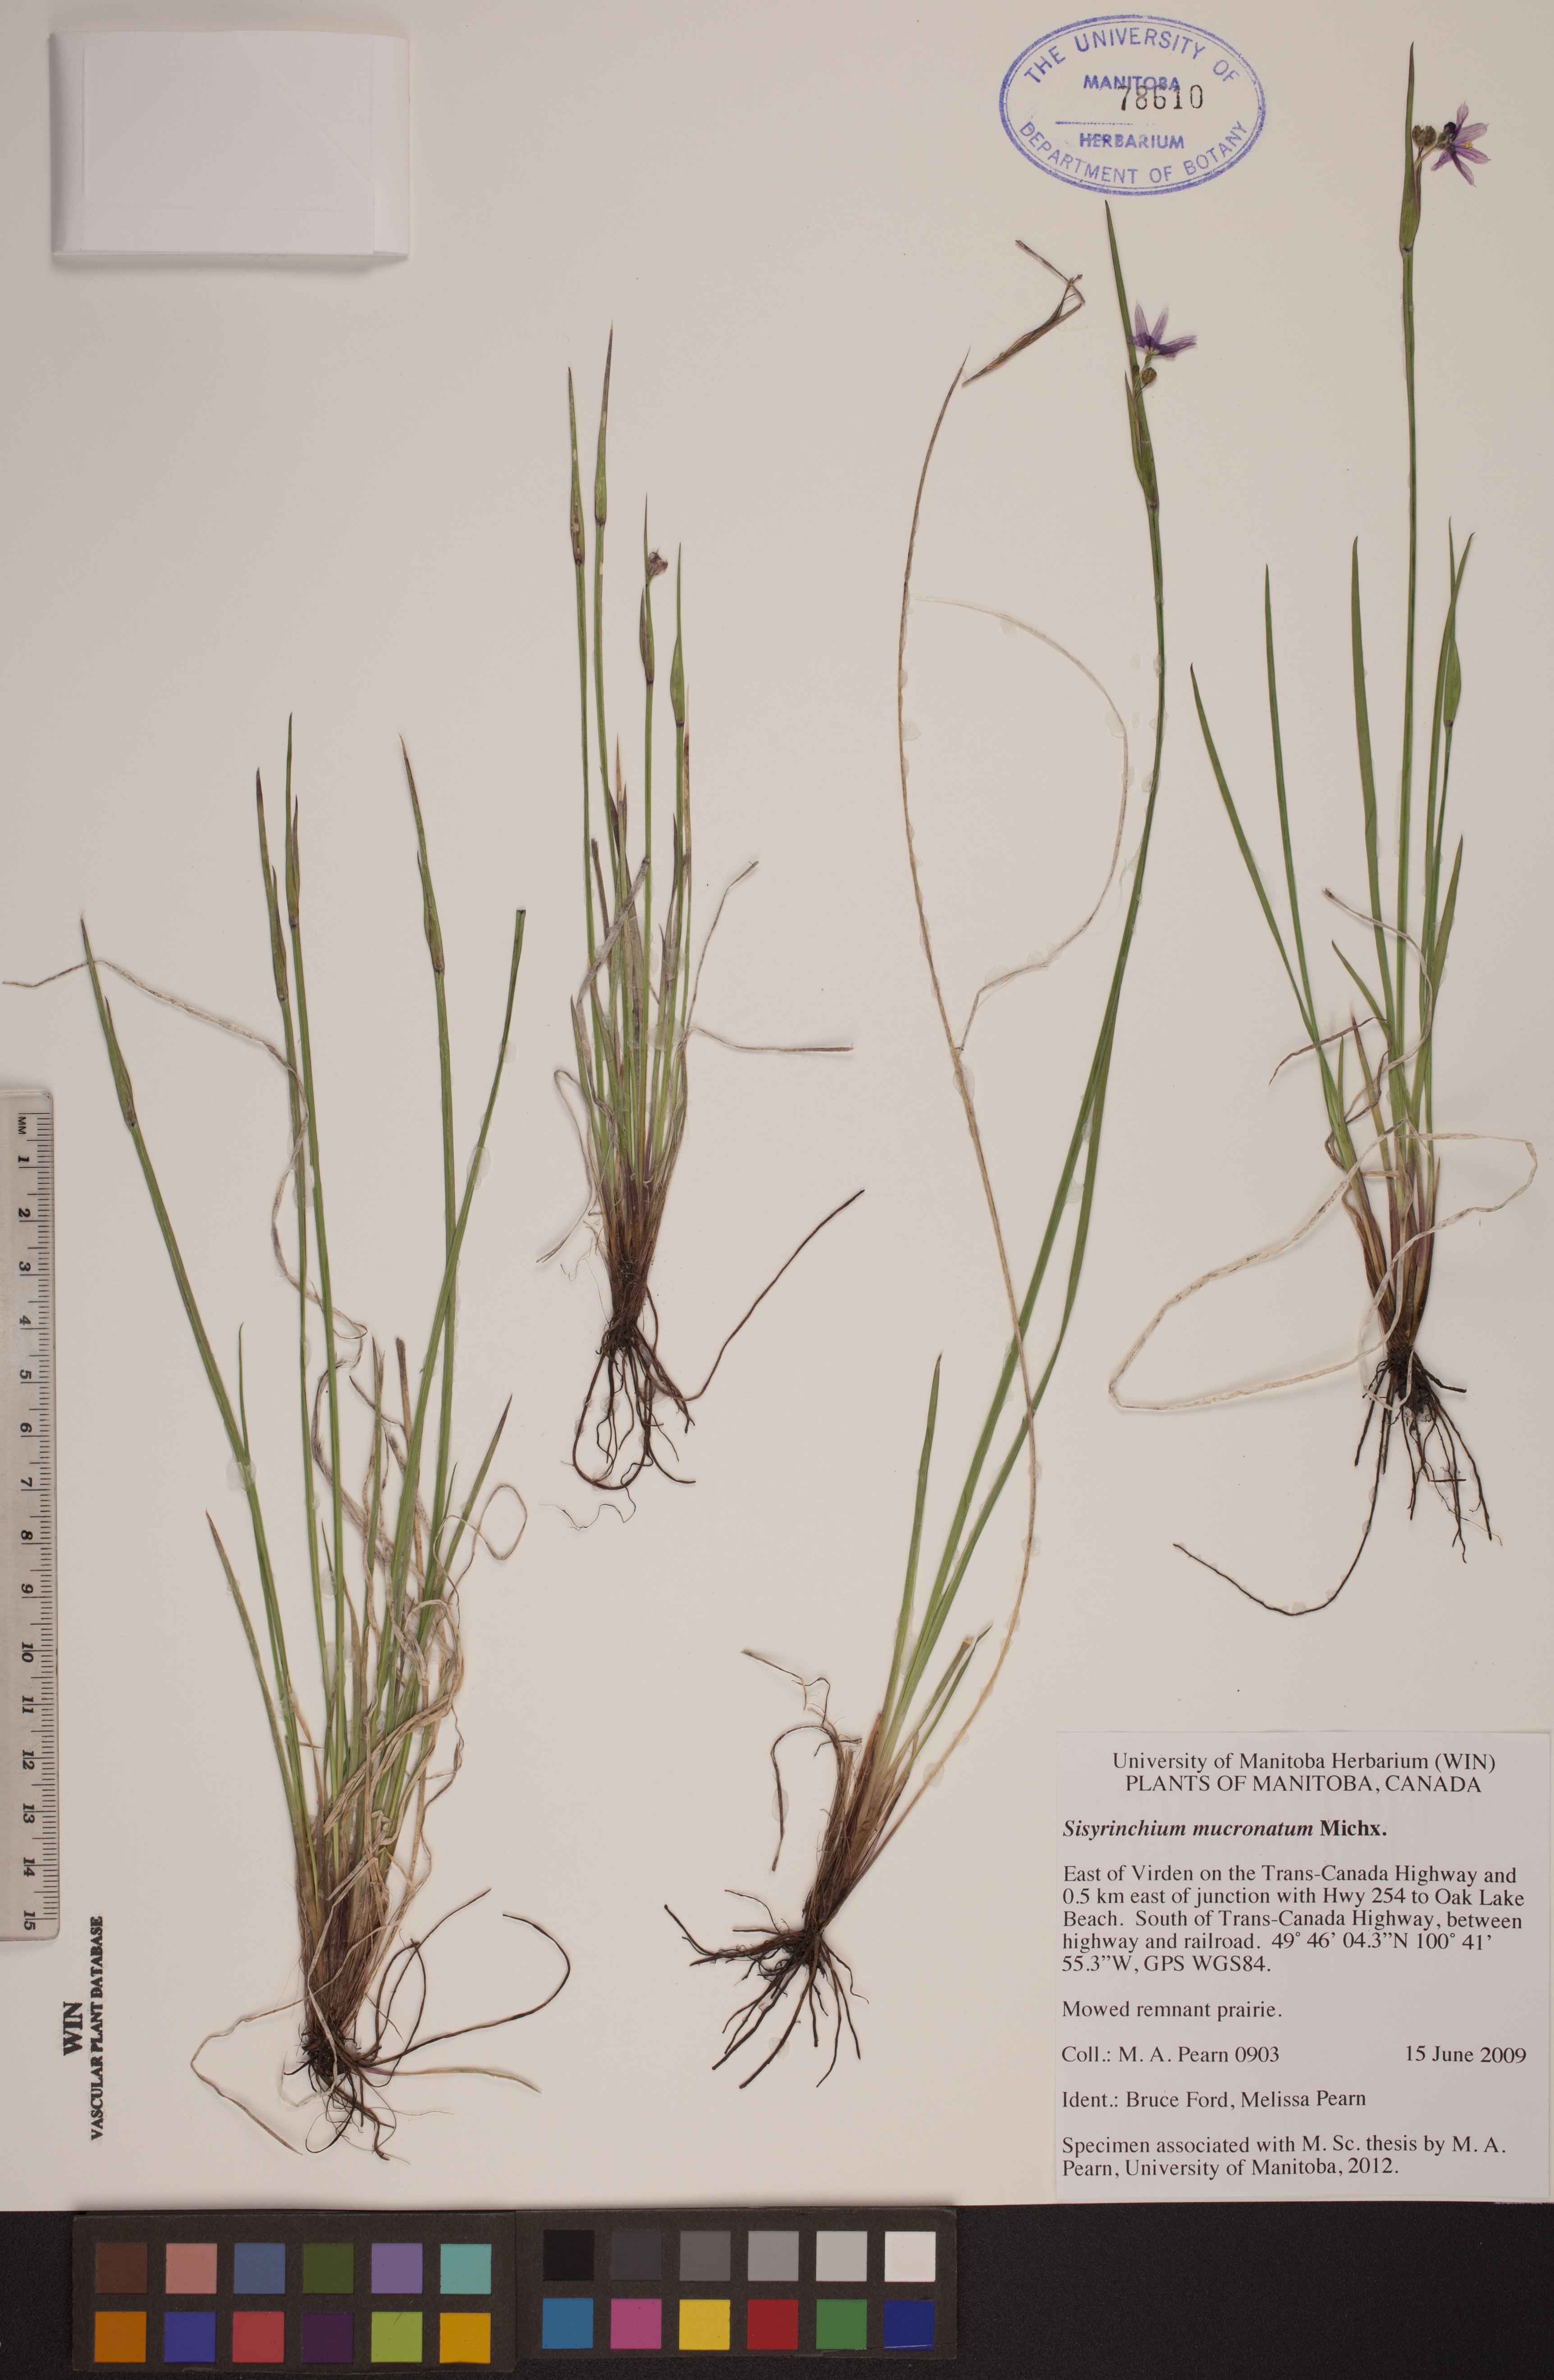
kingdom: Plantae
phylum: Tracheophyta
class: Liliopsida
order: Asparagales
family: Iridaceae
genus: Sisyrinchium
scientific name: Sisyrinchium mucronatum
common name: Eastern blue-eyed-grass
